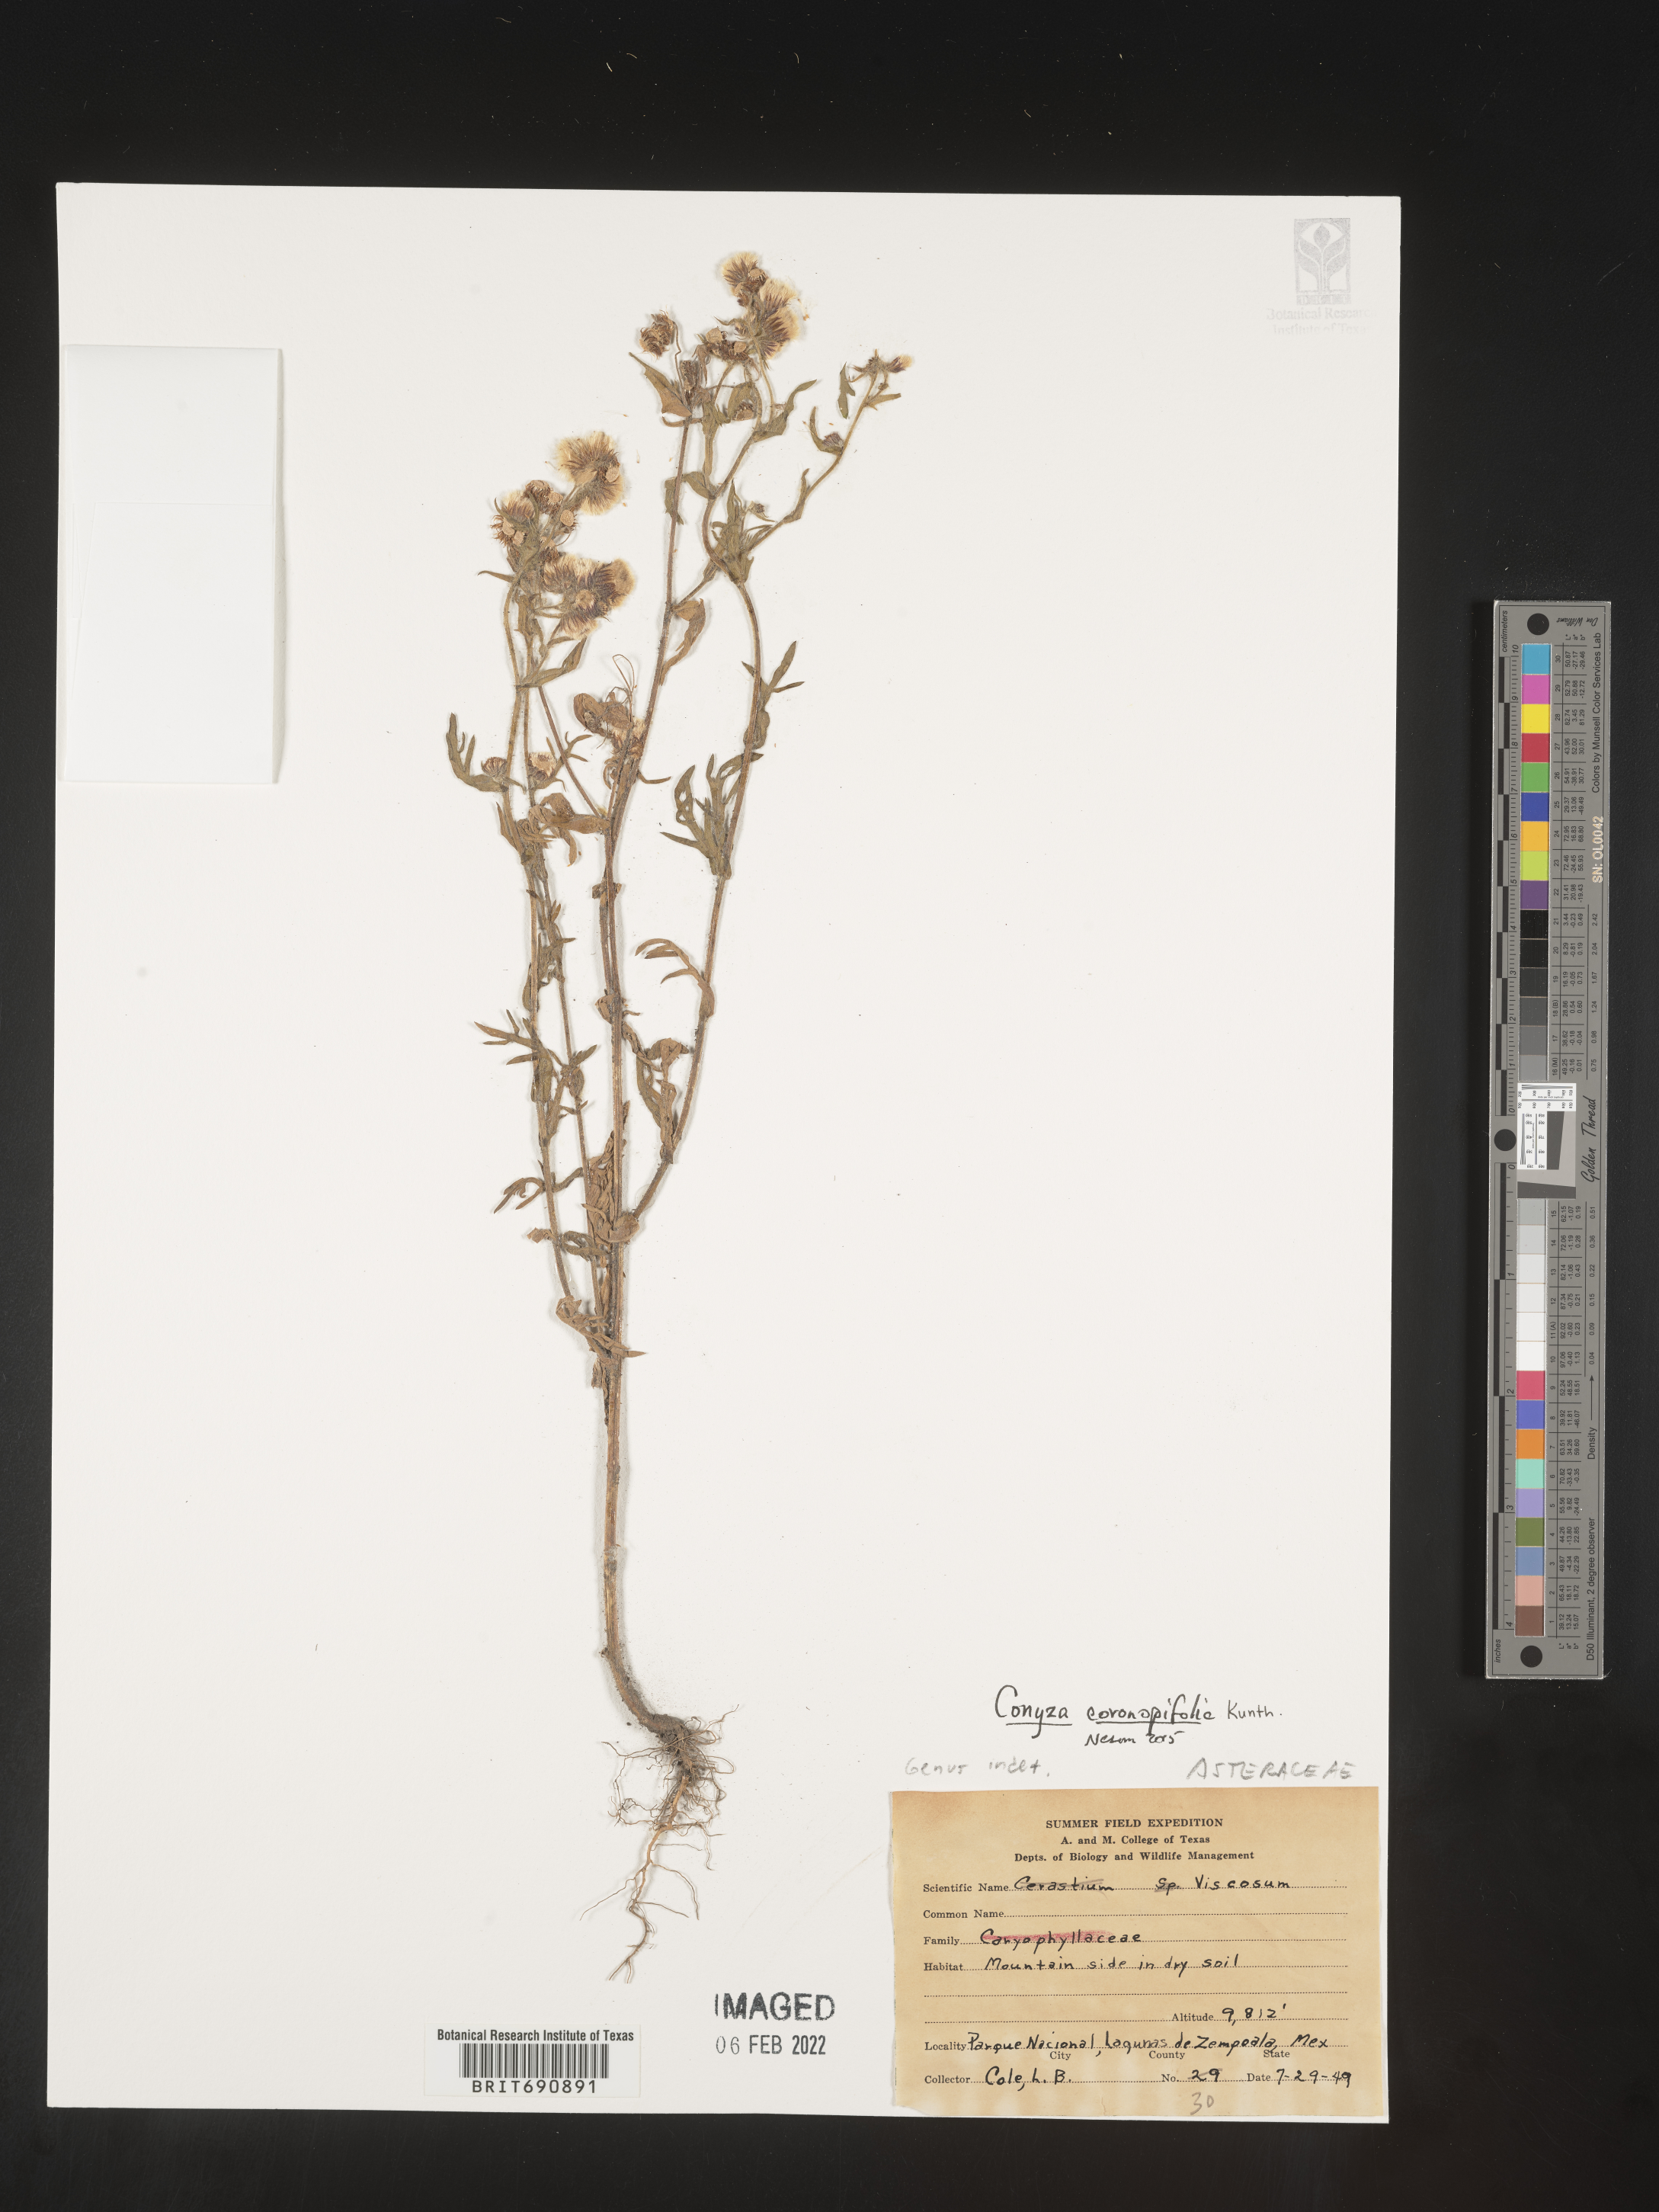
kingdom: Plantae
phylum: Tracheophyta
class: Magnoliopsida
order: Asterales
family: Asteraceae
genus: Erigeron
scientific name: Erigeron variifolius
